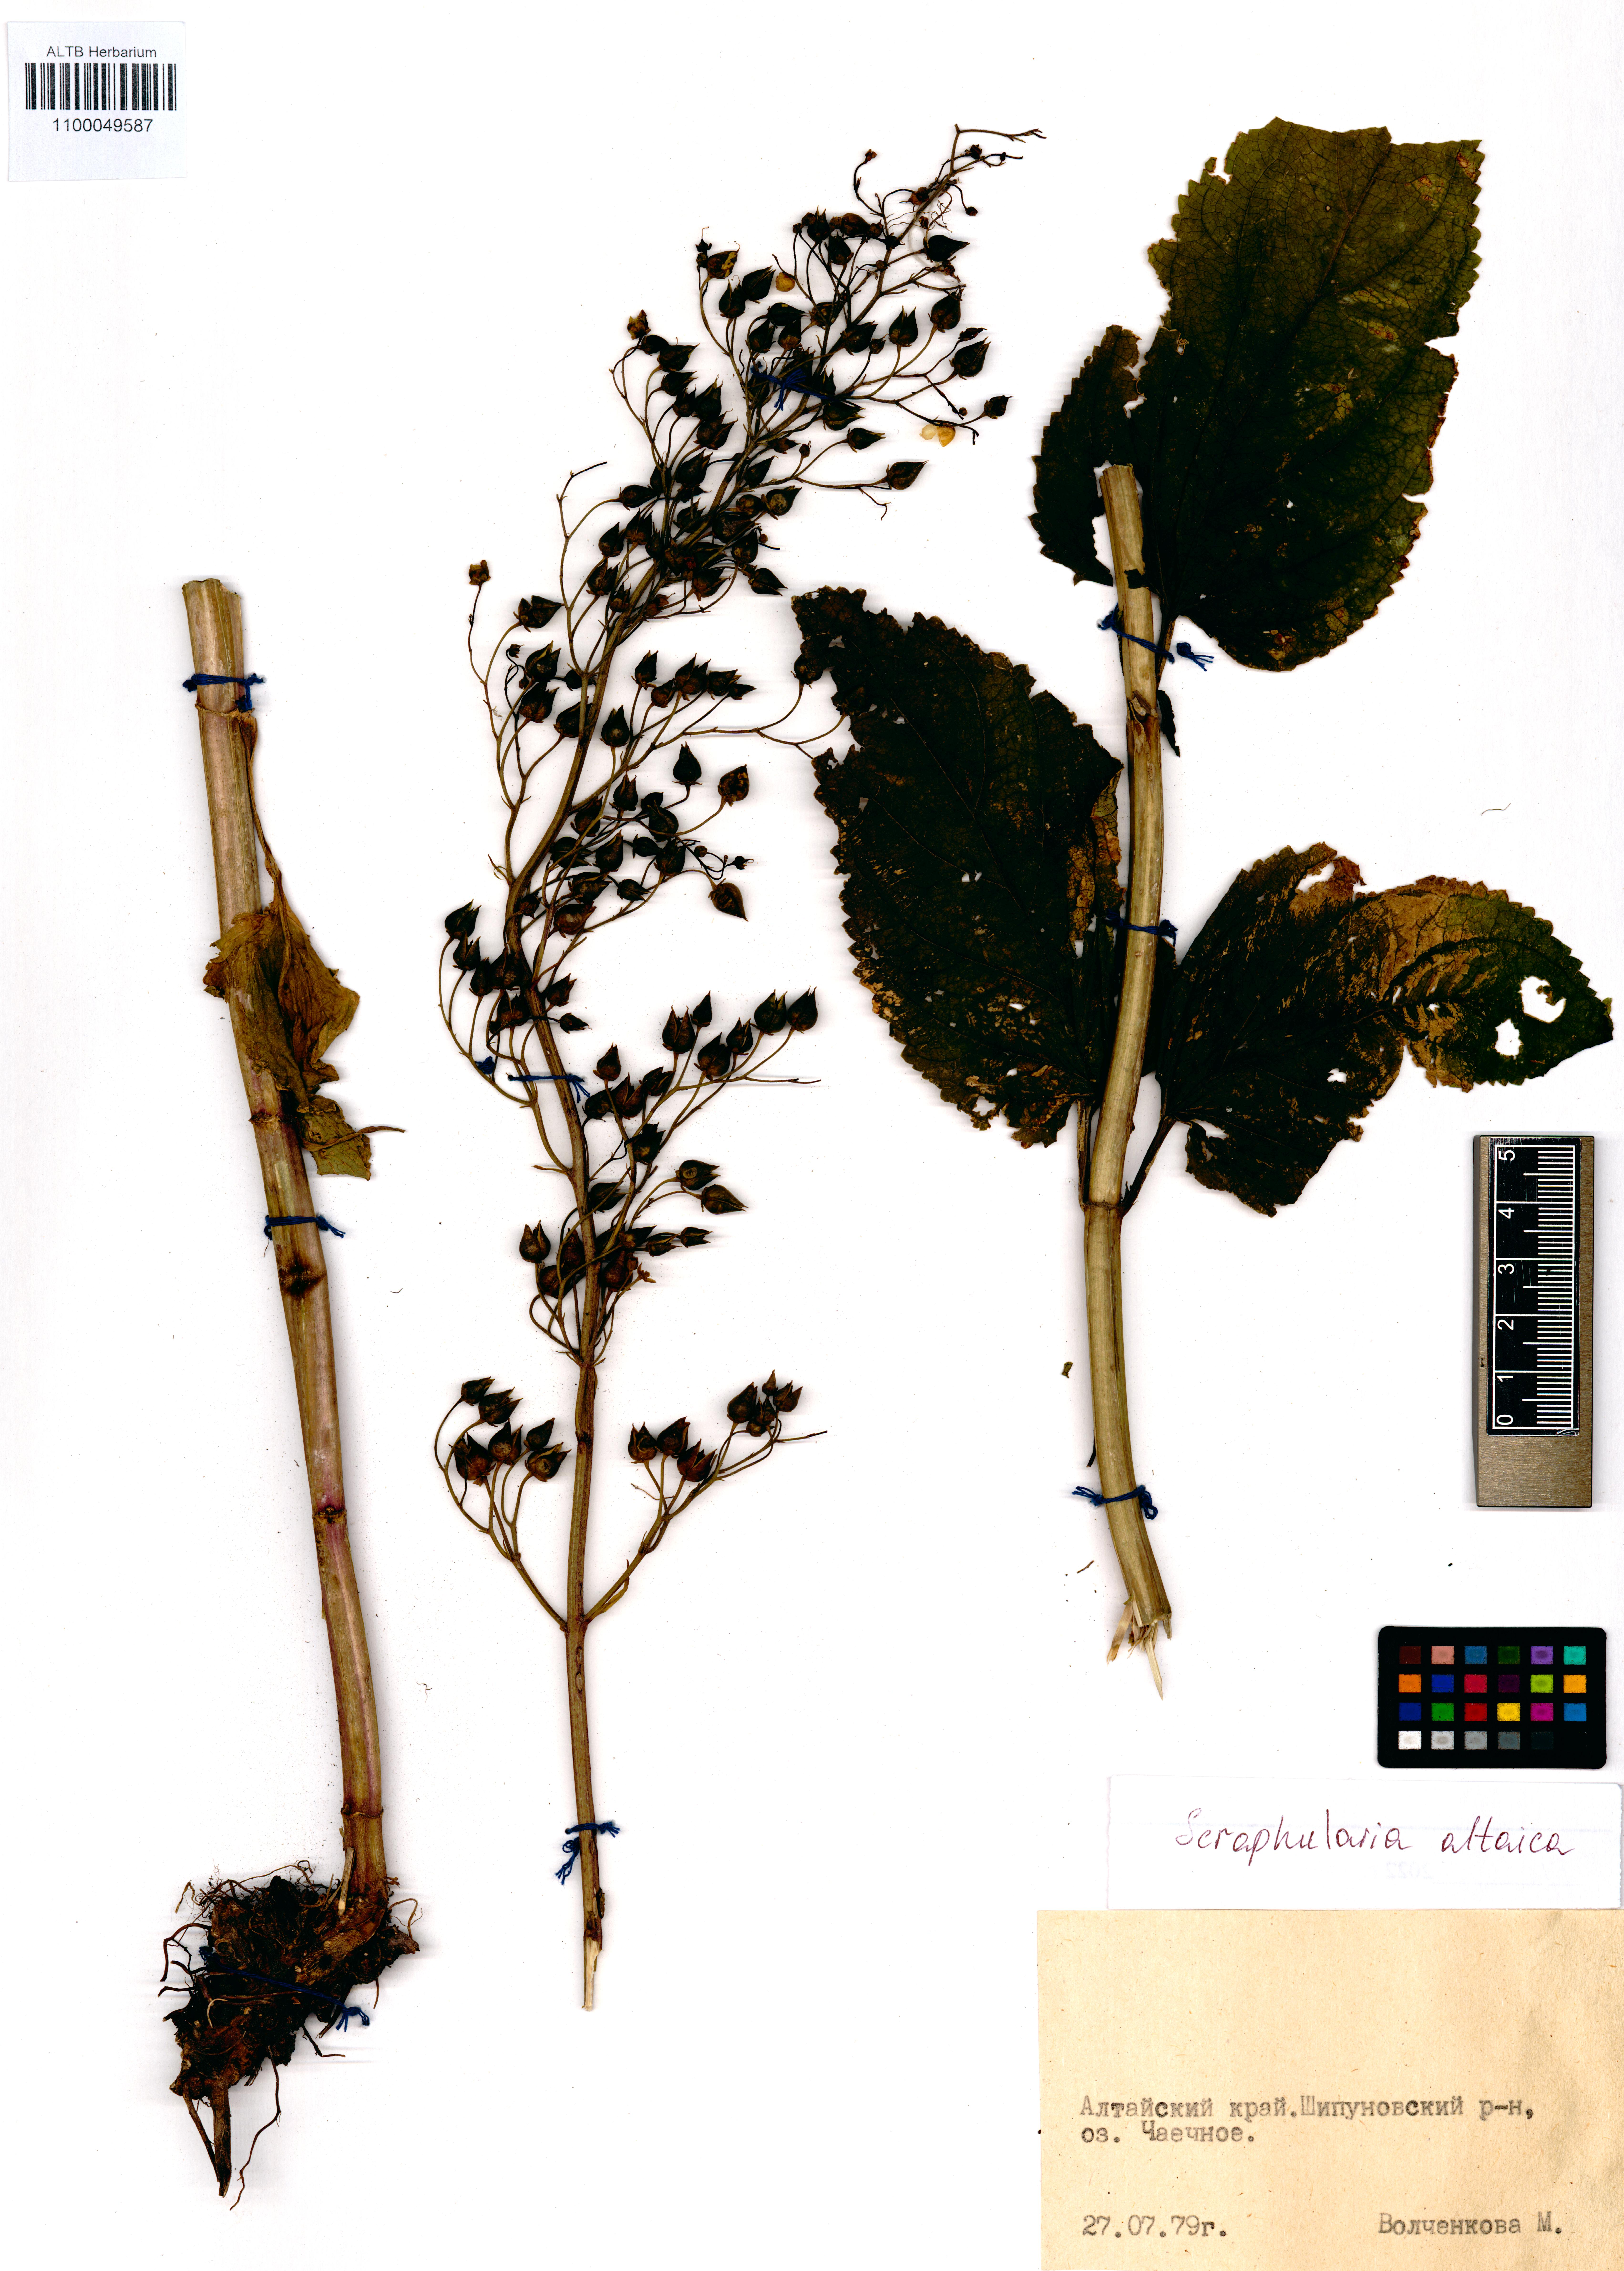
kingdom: Plantae
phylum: Tracheophyta
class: Magnoliopsida
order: Lamiales
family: Scrophulariaceae
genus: Scrophularia
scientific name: Scrophularia altaica
